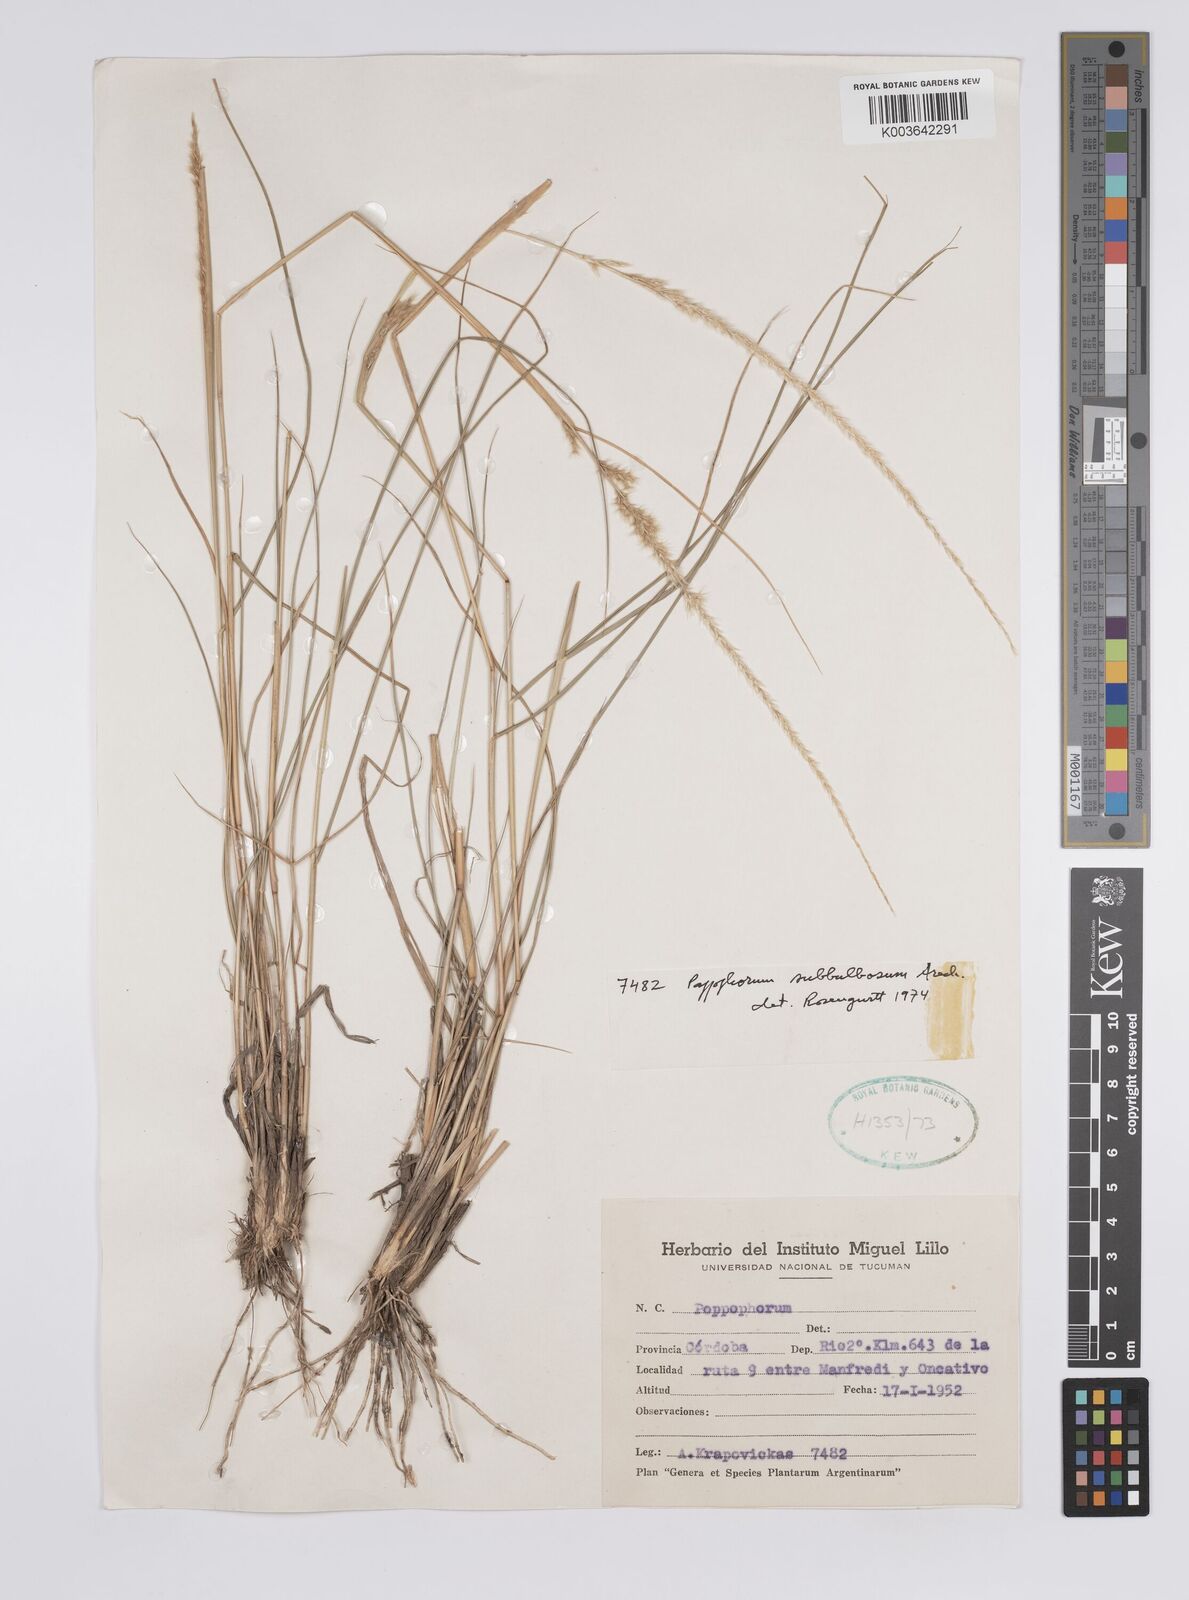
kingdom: Plantae
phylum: Tracheophyta
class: Liliopsida
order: Poales
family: Poaceae
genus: Pappophorum
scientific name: Pappophorum mucronulatum
